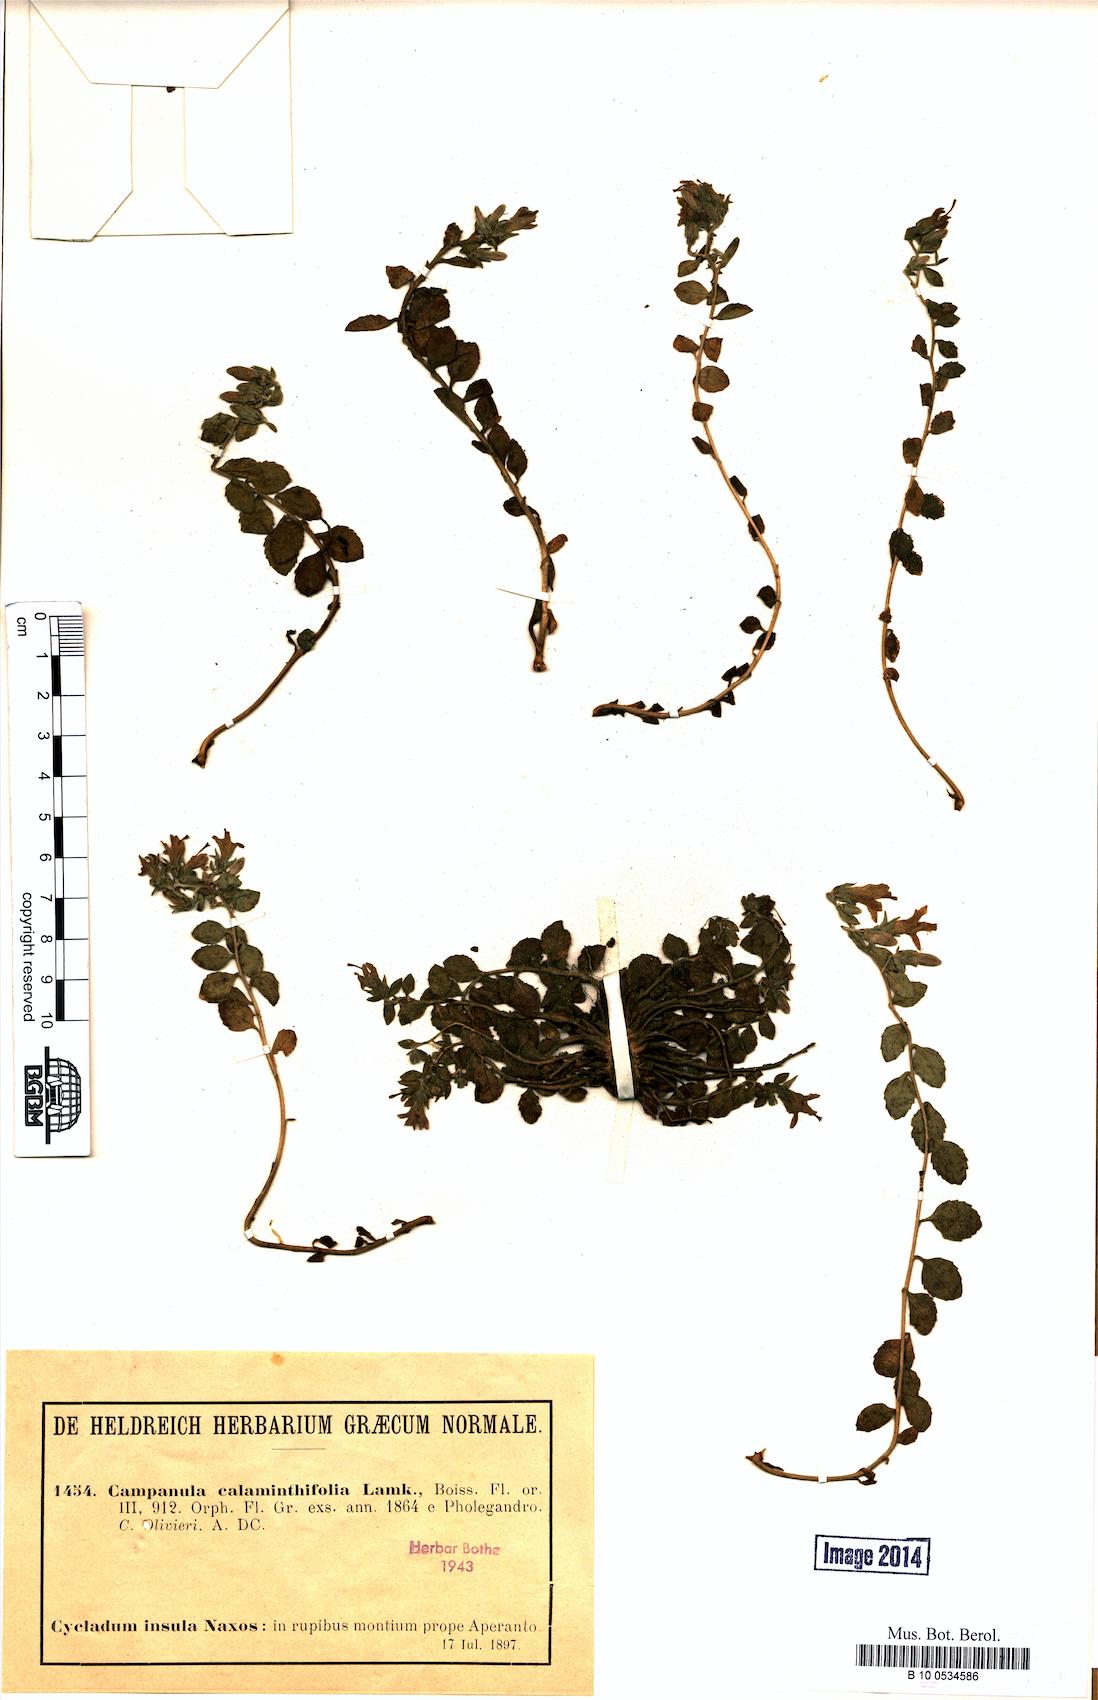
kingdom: Plantae
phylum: Tracheophyta
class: Magnoliopsida
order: Asterales
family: Campanulaceae
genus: Campanula
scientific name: Campanula calaminthifolia
